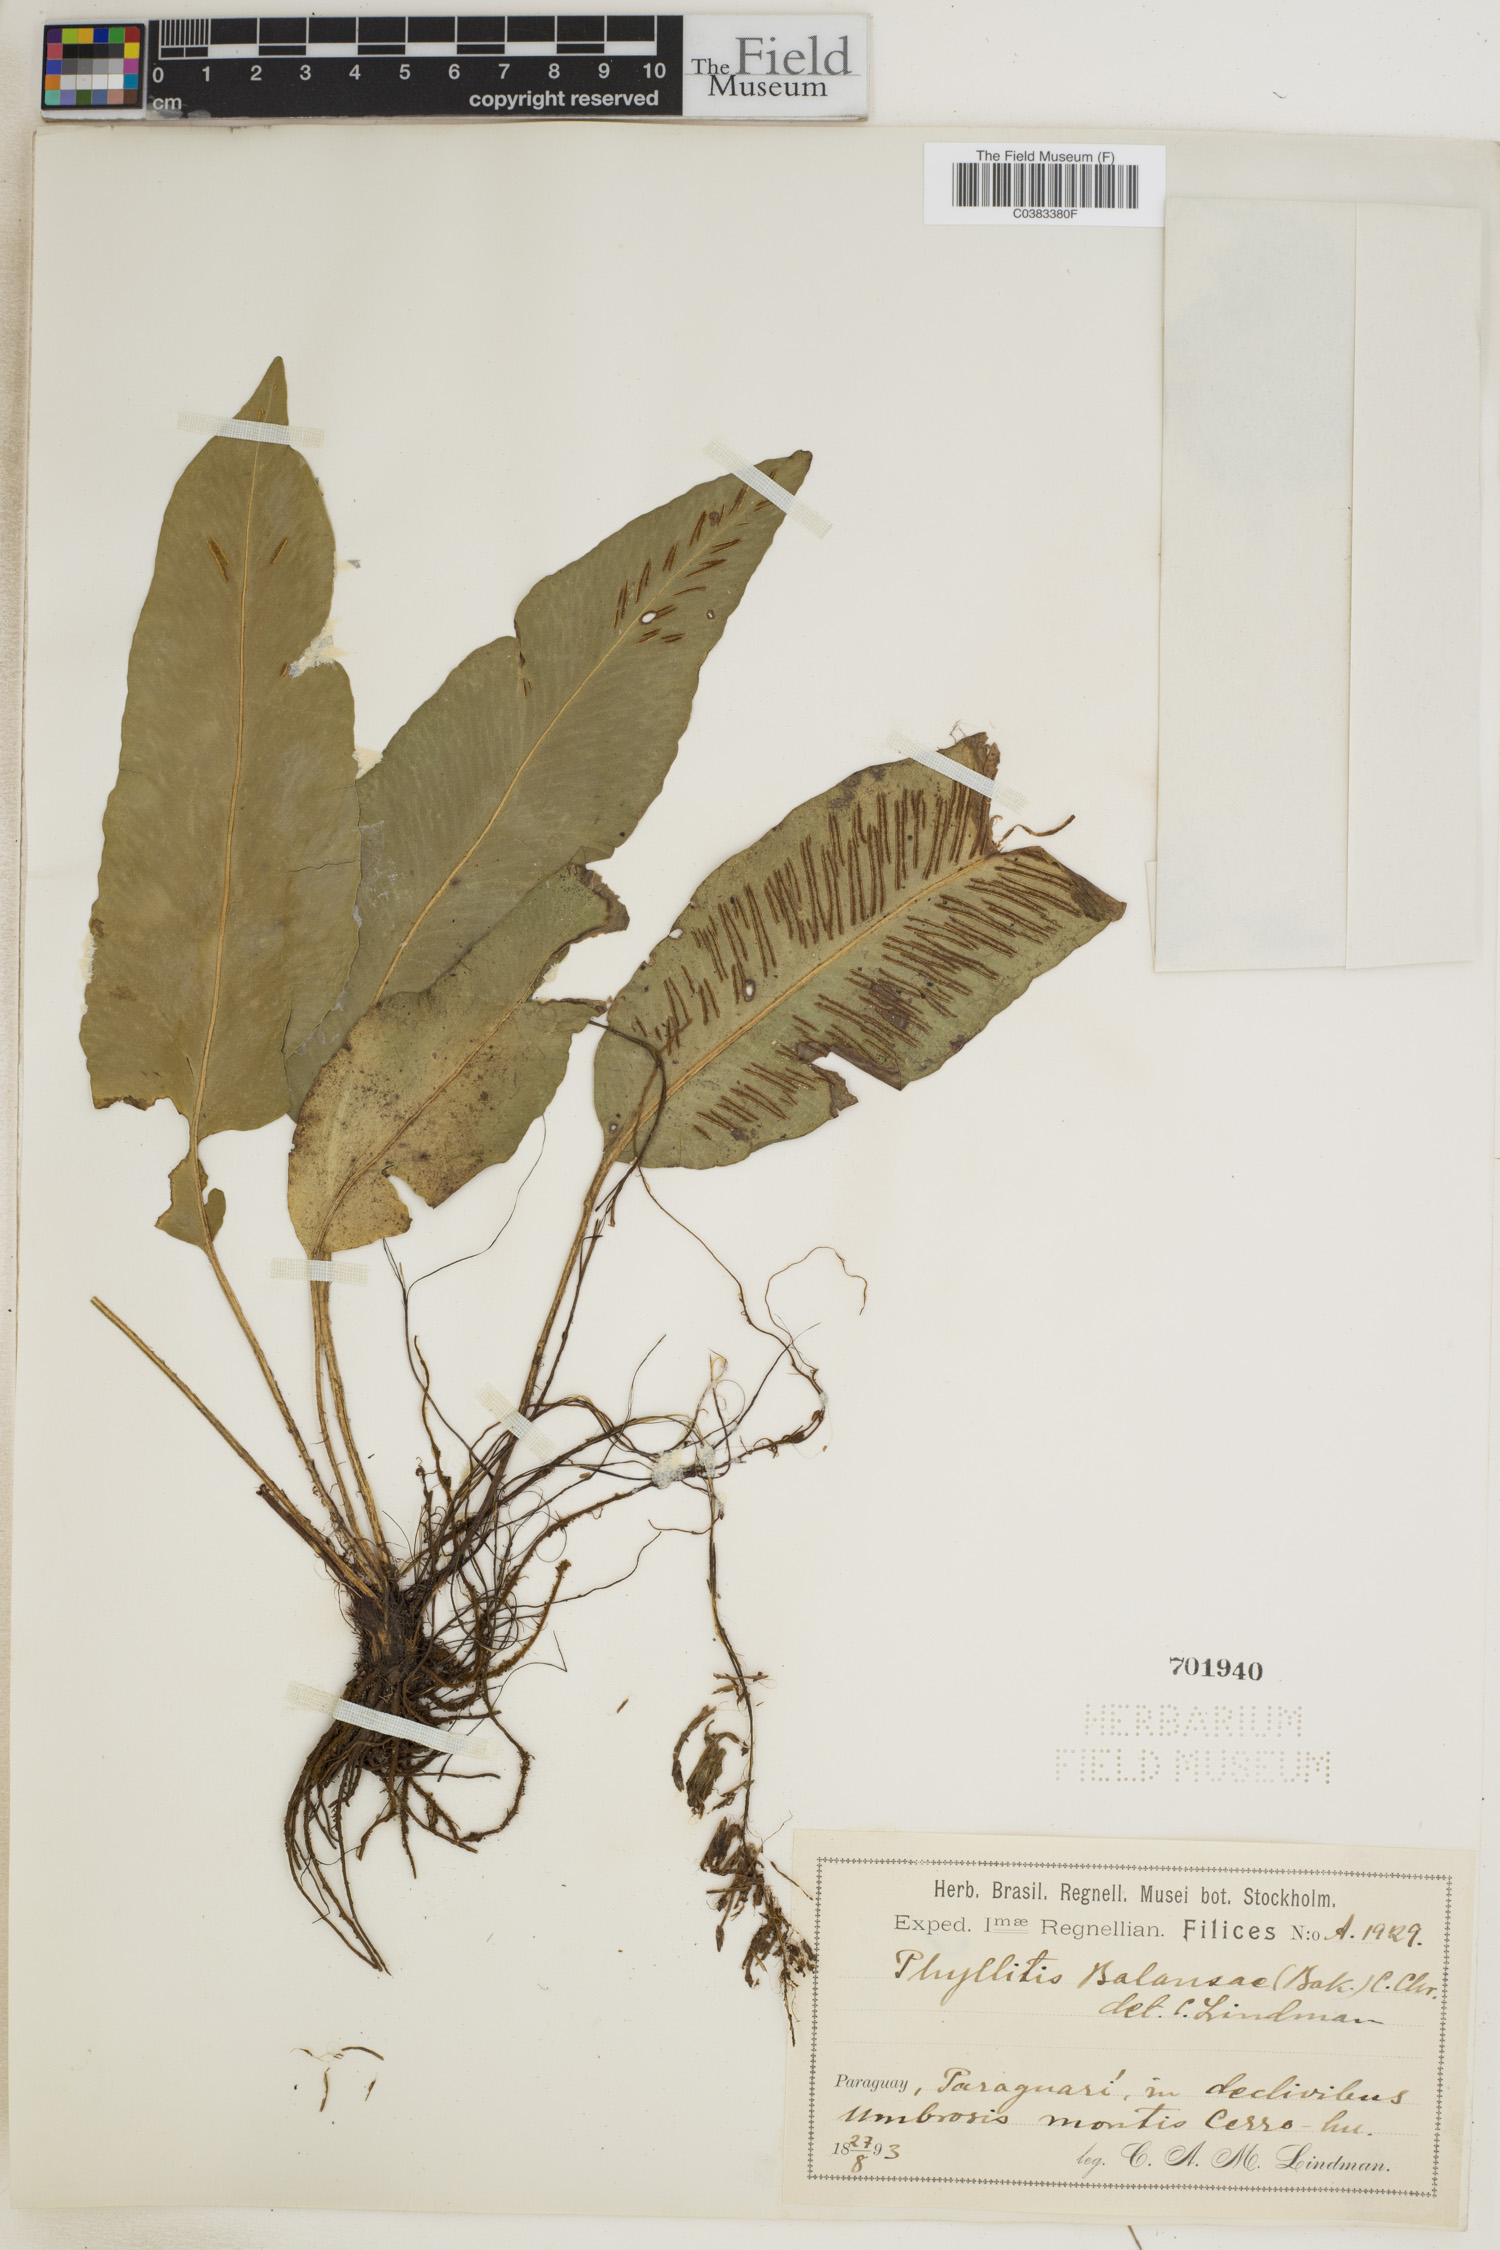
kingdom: Plantae
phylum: Tracheophyta
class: Polypodiopsida
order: Polypodiales
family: Aspleniaceae
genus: Asplenium
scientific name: Asplenium balansae
